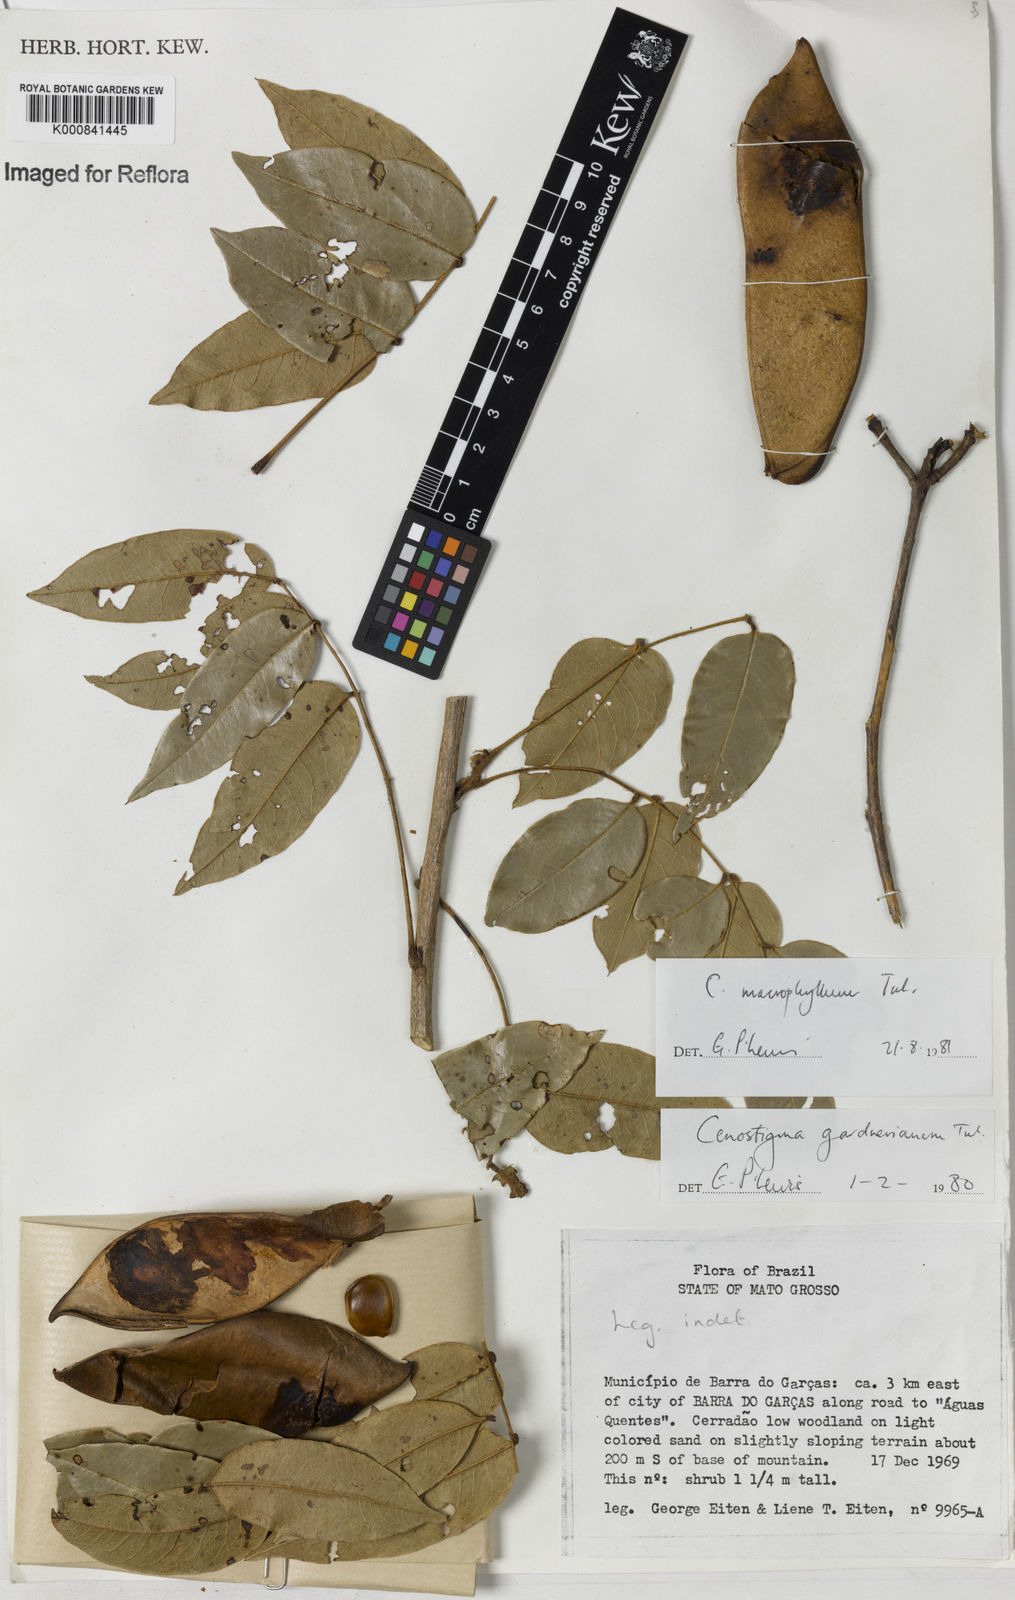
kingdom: Plantae
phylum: Tracheophyta
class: Magnoliopsida
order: Fabales
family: Fabaceae
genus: Cenostigma
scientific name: Cenostigma macrophyllum
